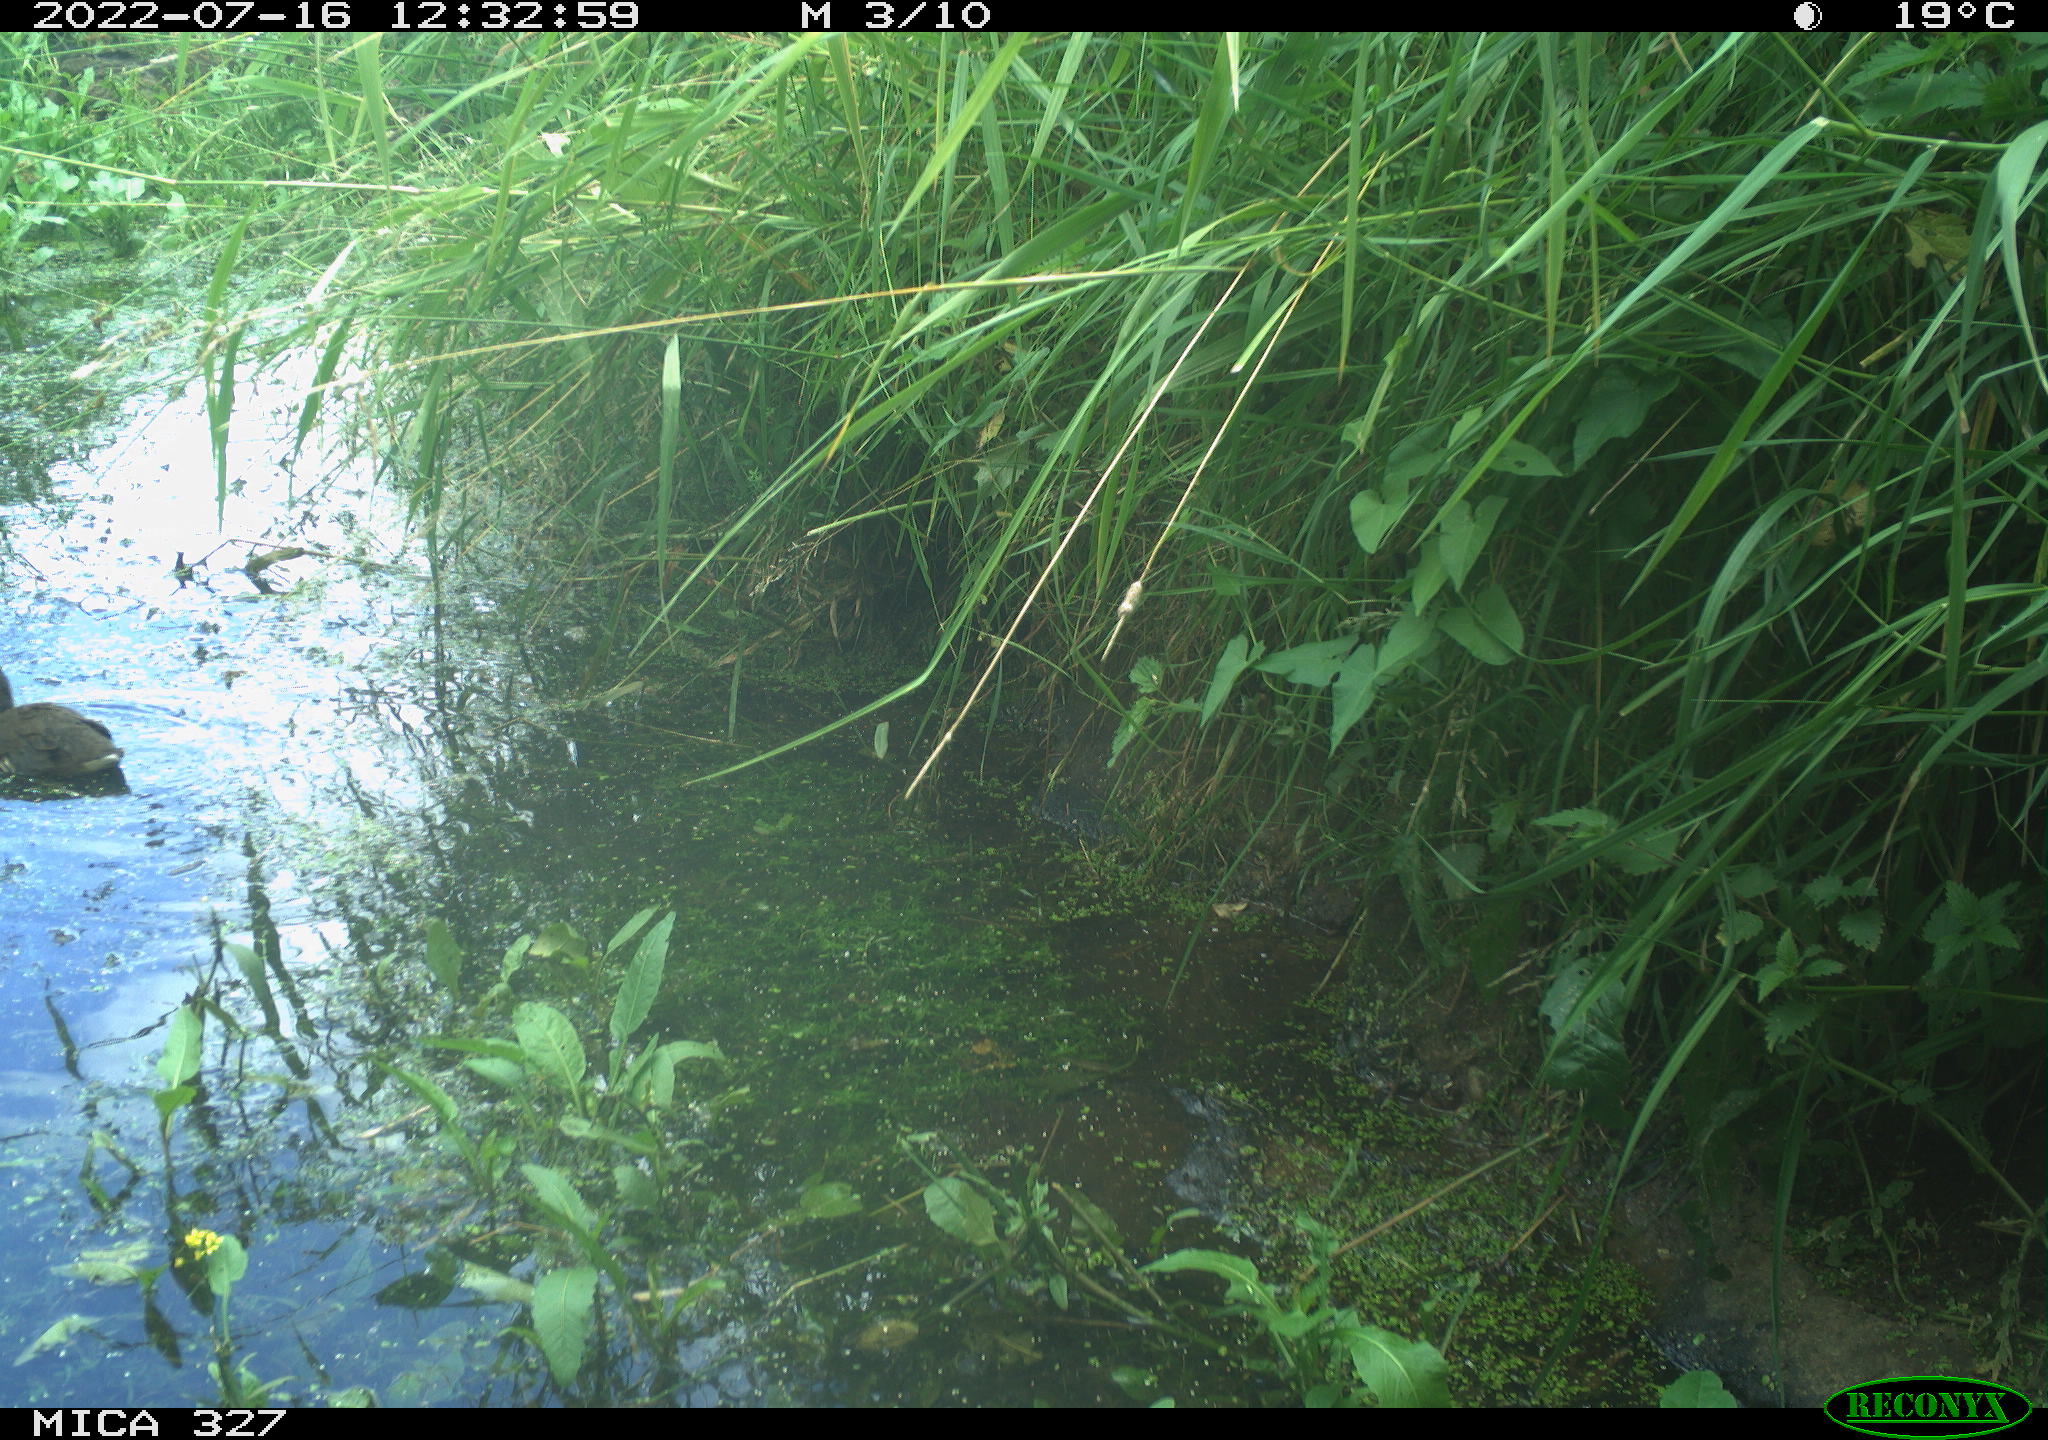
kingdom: Animalia
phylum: Chordata
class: Aves
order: Gruiformes
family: Rallidae
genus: Gallinula
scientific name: Gallinula chloropus
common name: Common moorhen
